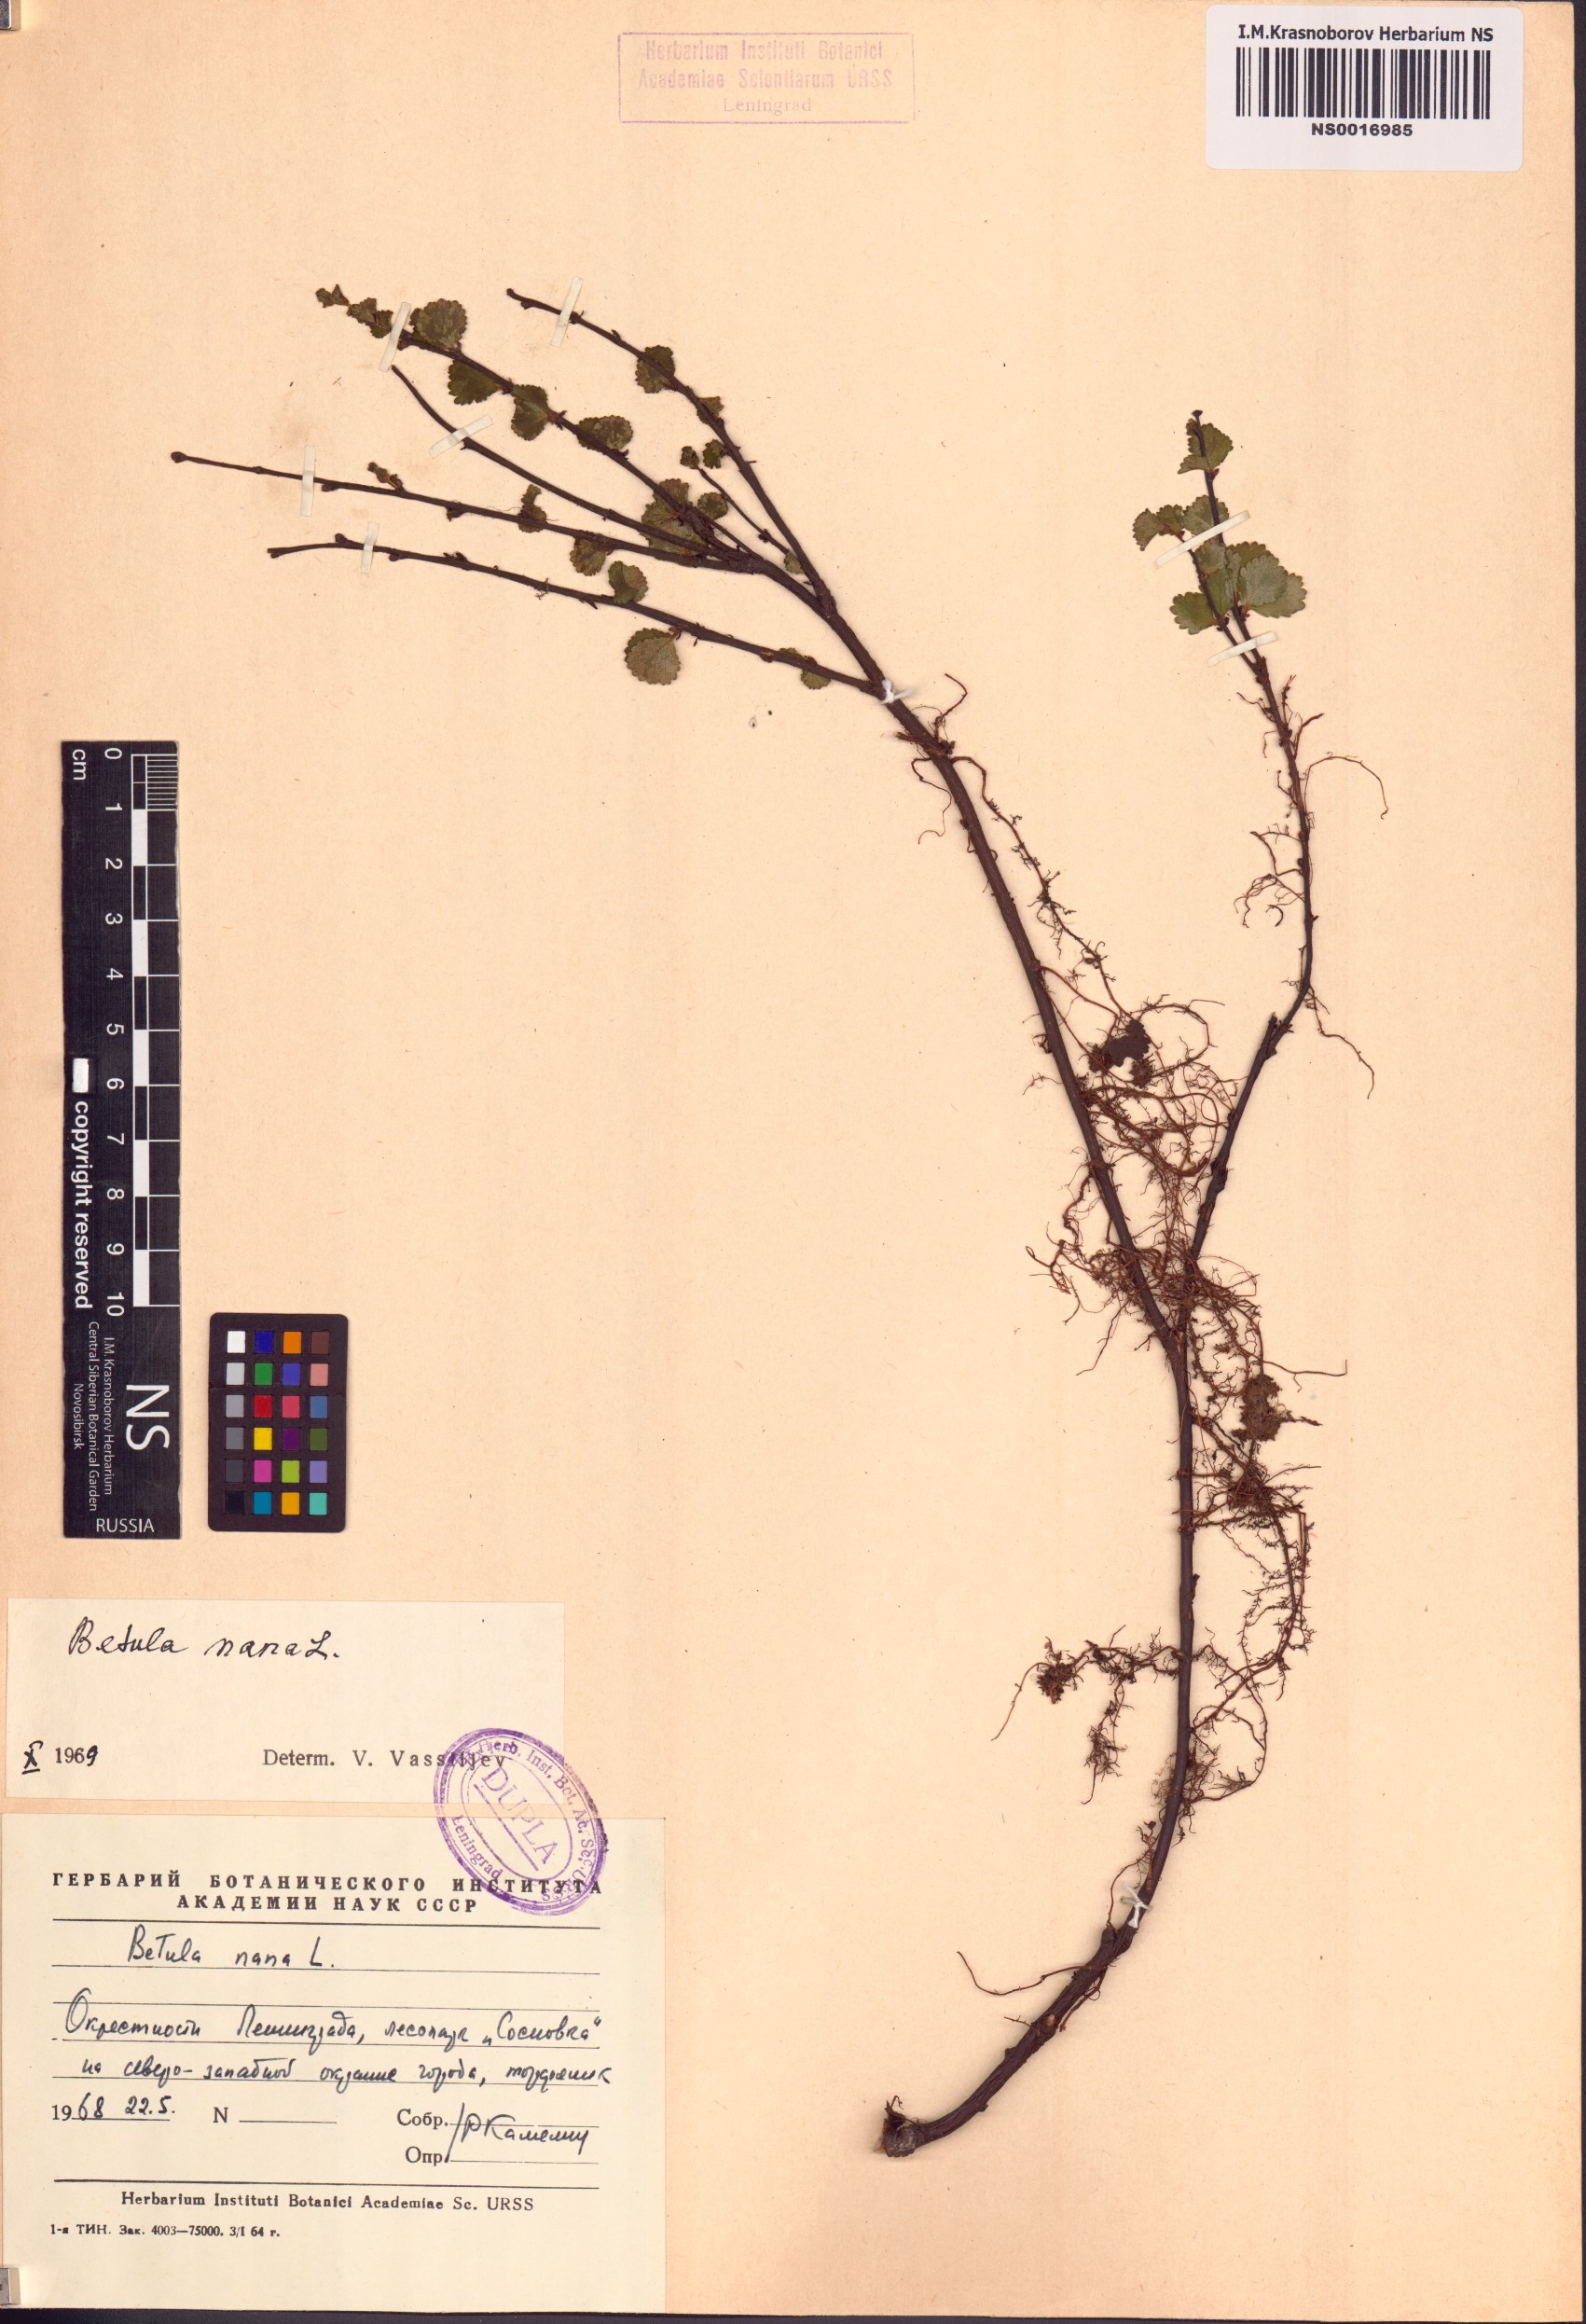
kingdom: Plantae
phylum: Tracheophyta
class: Magnoliopsida
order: Fagales
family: Betulaceae
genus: Betula
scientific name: Betula nana
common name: Arctic dwarf birch
